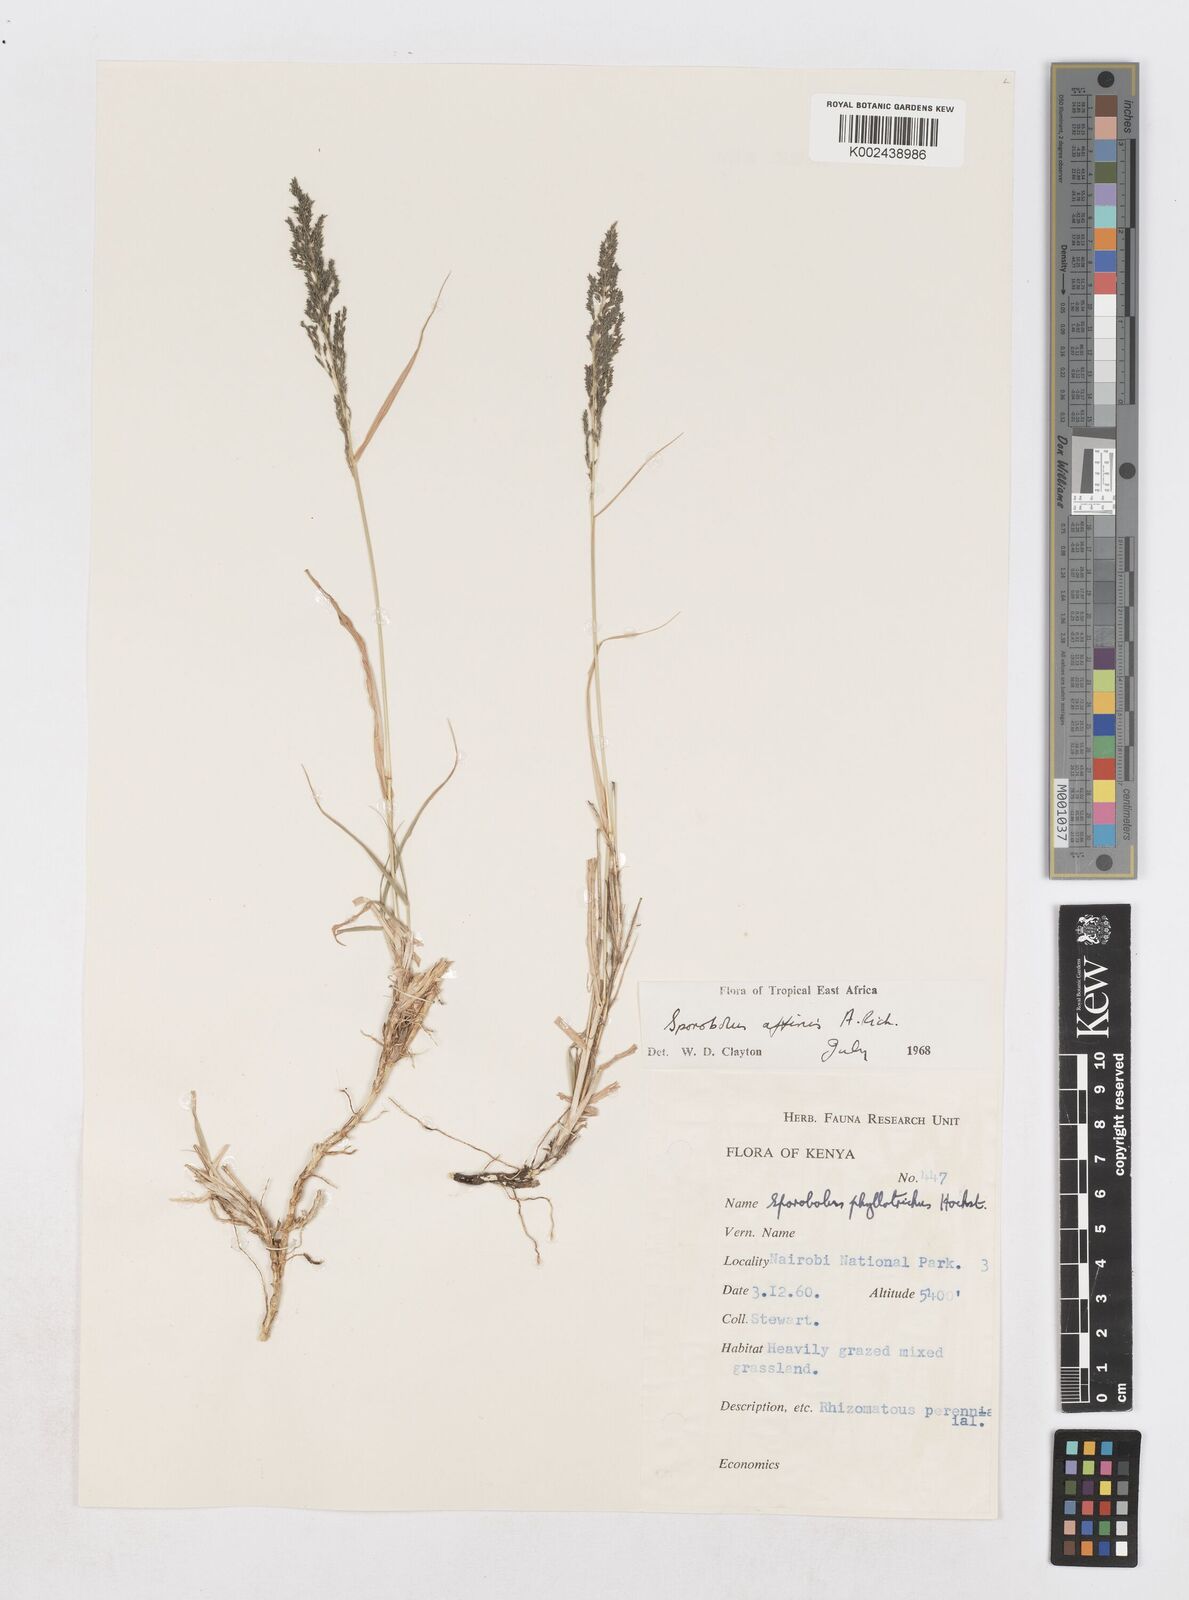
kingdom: Plantae
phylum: Tracheophyta
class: Liliopsida
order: Poales
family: Poaceae
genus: Sporobolus
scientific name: Sporobolus confinis
